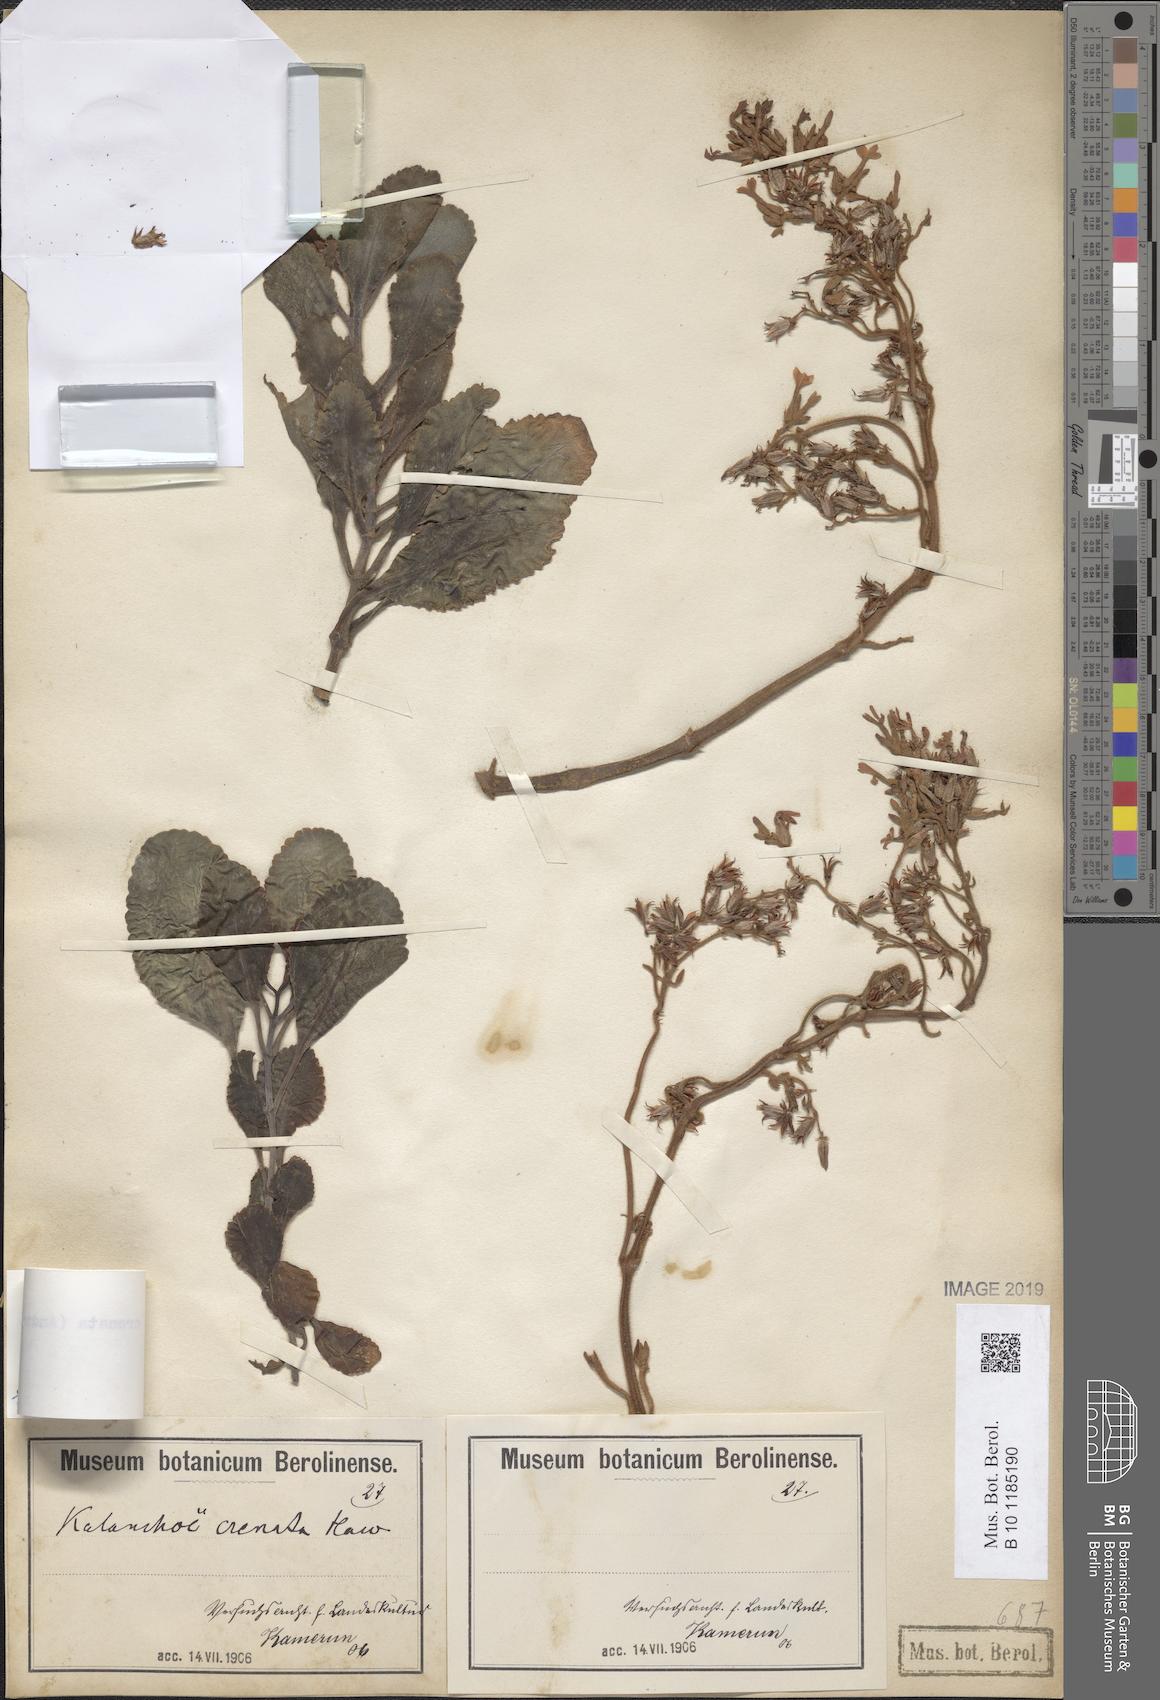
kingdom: Plantae
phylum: Tracheophyta
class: Magnoliopsida
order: Saxifragales
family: Crassulaceae
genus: Kalanchoe
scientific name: Kalanchoe crenata
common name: Neverdie
